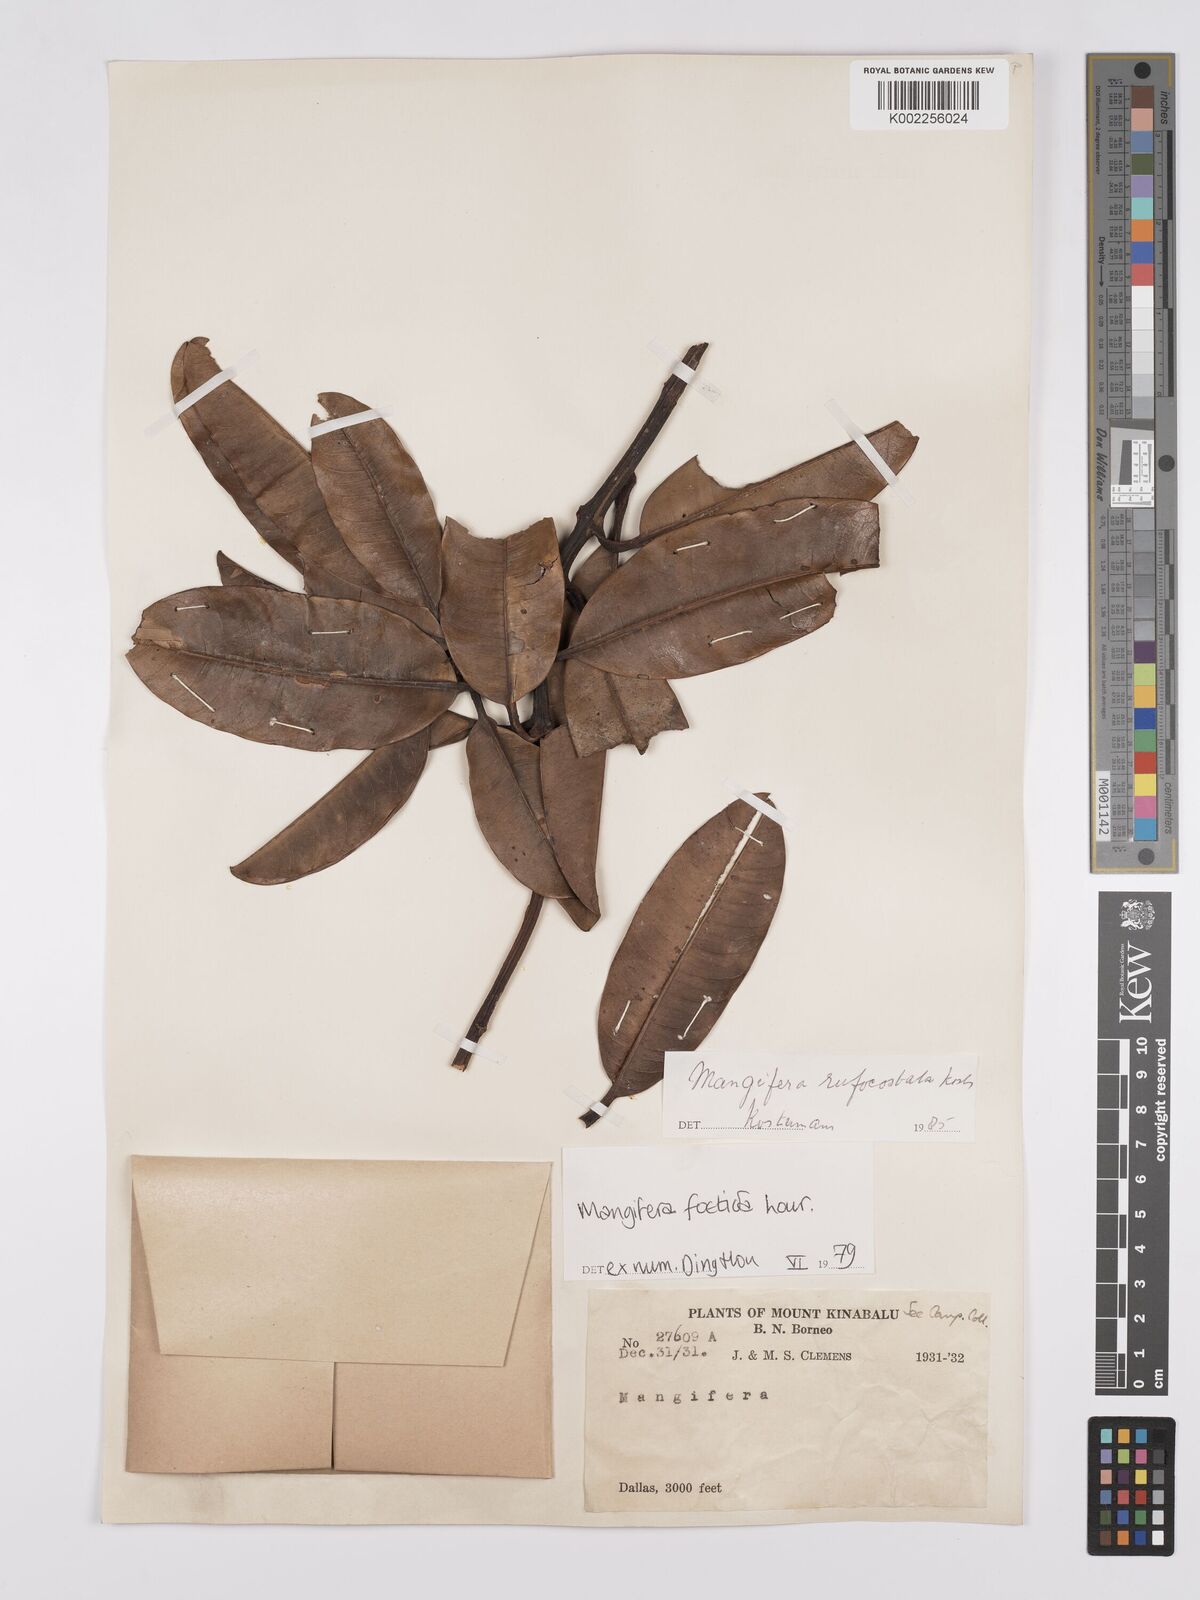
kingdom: Plantae
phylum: Tracheophyta
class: Magnoliopsida
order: Sapindales
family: Anacardiaceae
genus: Mangifera
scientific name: Mangifera
